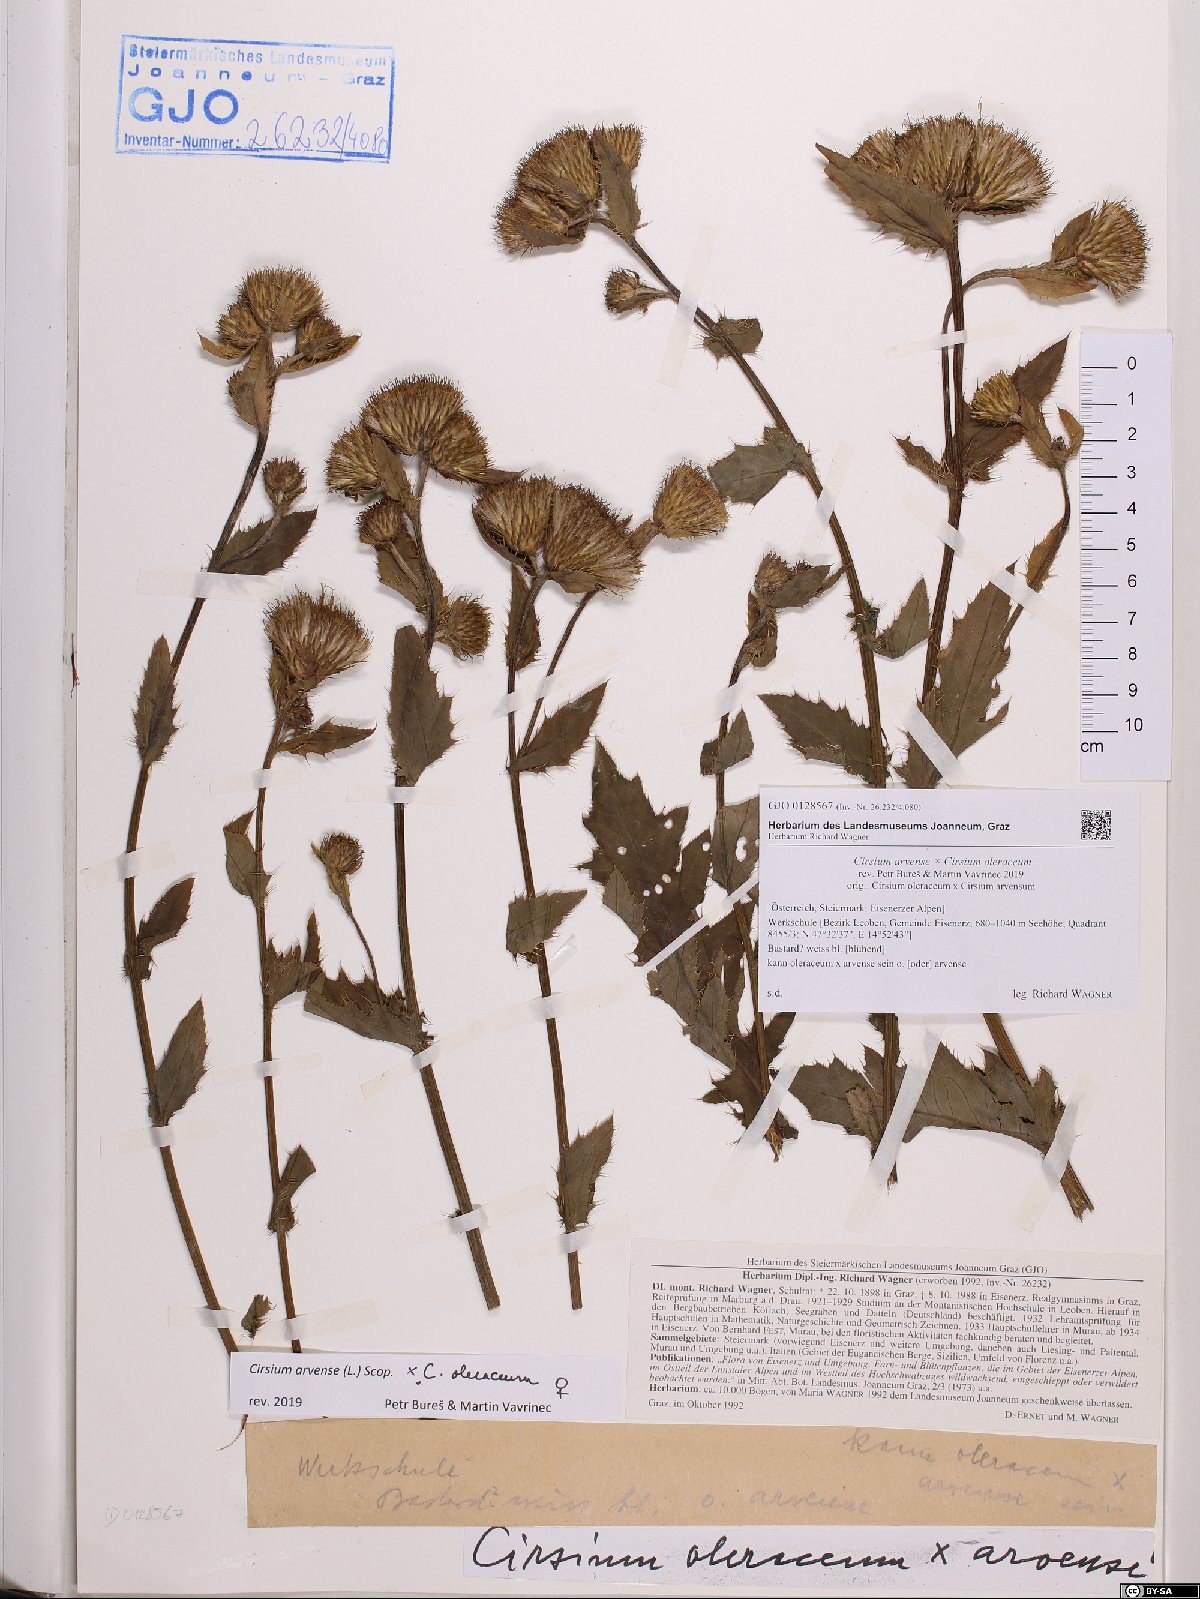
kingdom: Plantae
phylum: Tracheophyta
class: Magnoliopsida
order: Asterales
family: Asteraceae
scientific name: Asteraceae
